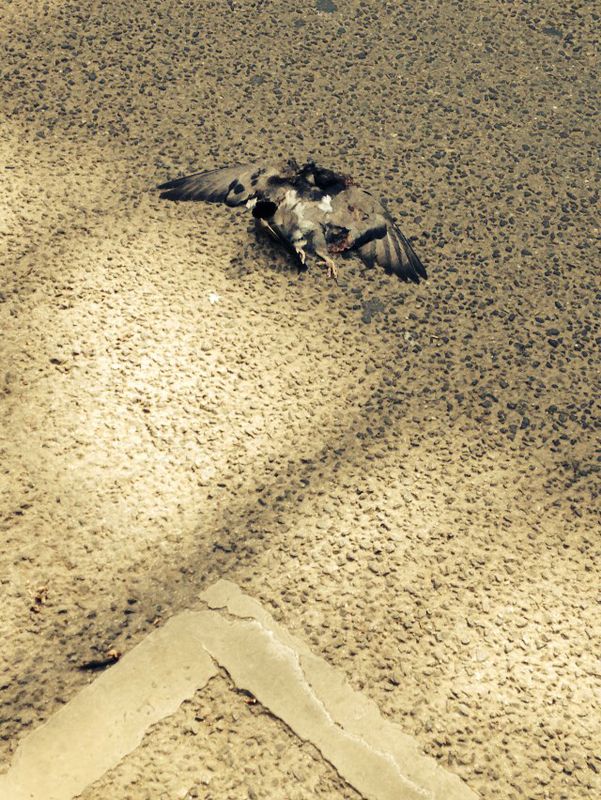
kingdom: Animalia
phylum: Chordata
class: Aves
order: Columbiformes
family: Columbidae
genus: Columba
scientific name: Columba livia
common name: Rock pigeon
